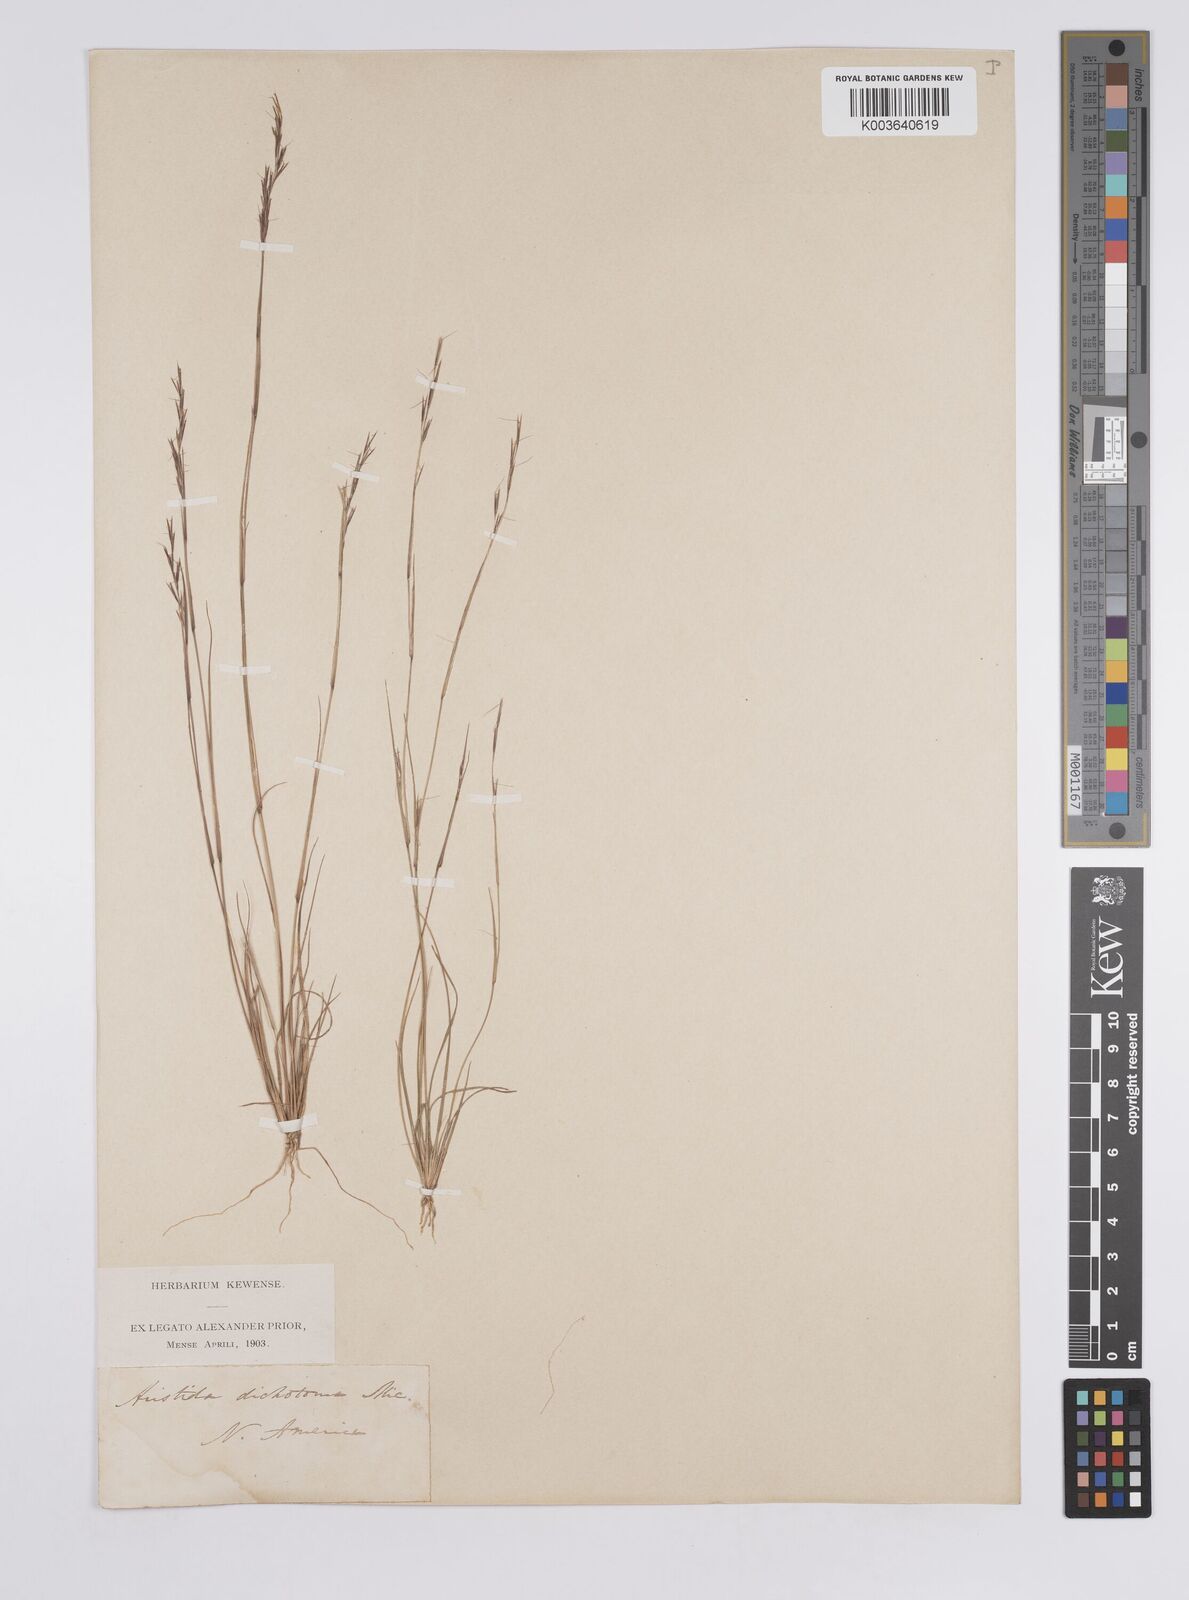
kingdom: Plantae
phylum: Tracheophyta
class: Liliopsida
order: Poales
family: Poaceae
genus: Aristida
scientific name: Aristida dichotoma
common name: Churchmouse three-awn
